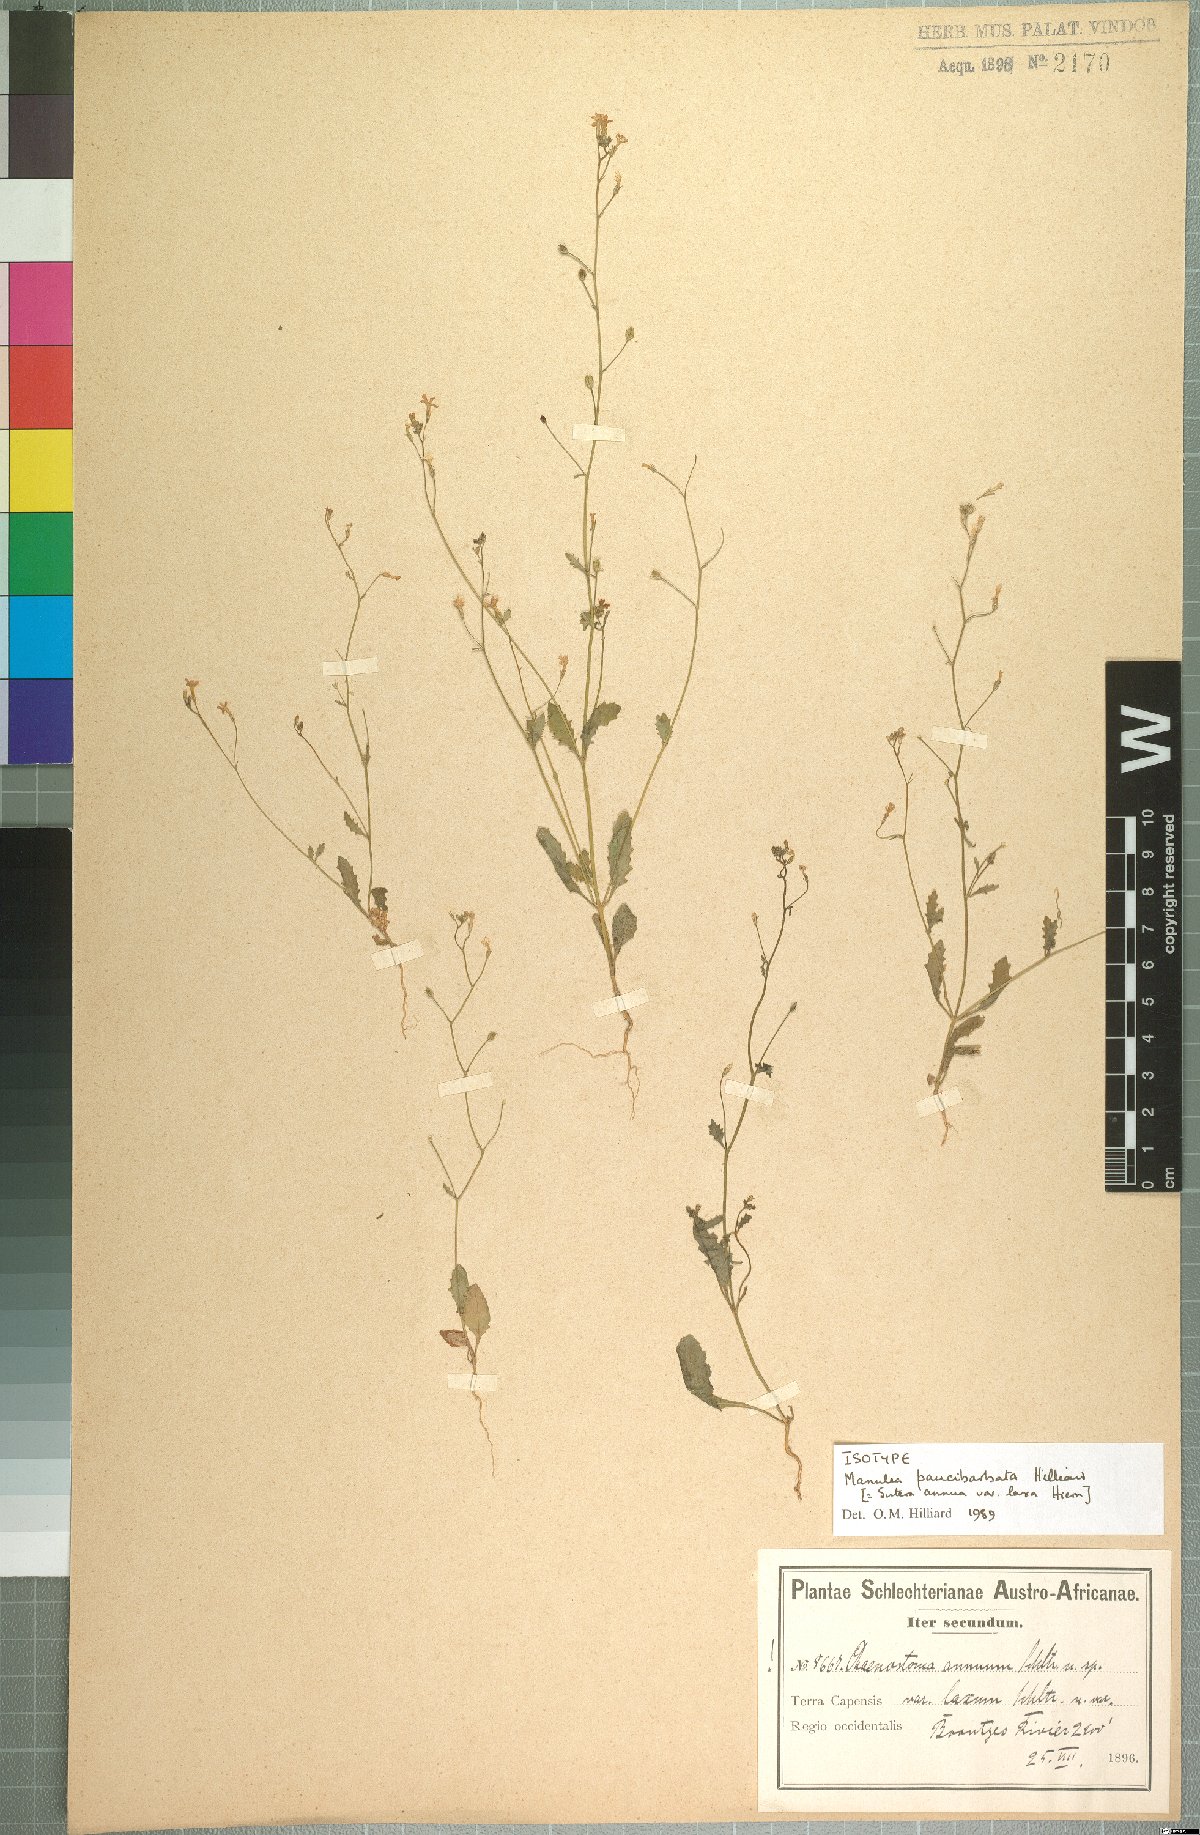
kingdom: Plantae
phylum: Tracheophyta
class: Magnoliopsida
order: Lamiales
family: Scrophulariaceae
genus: Manulea
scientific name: Manulea paucibarbata
